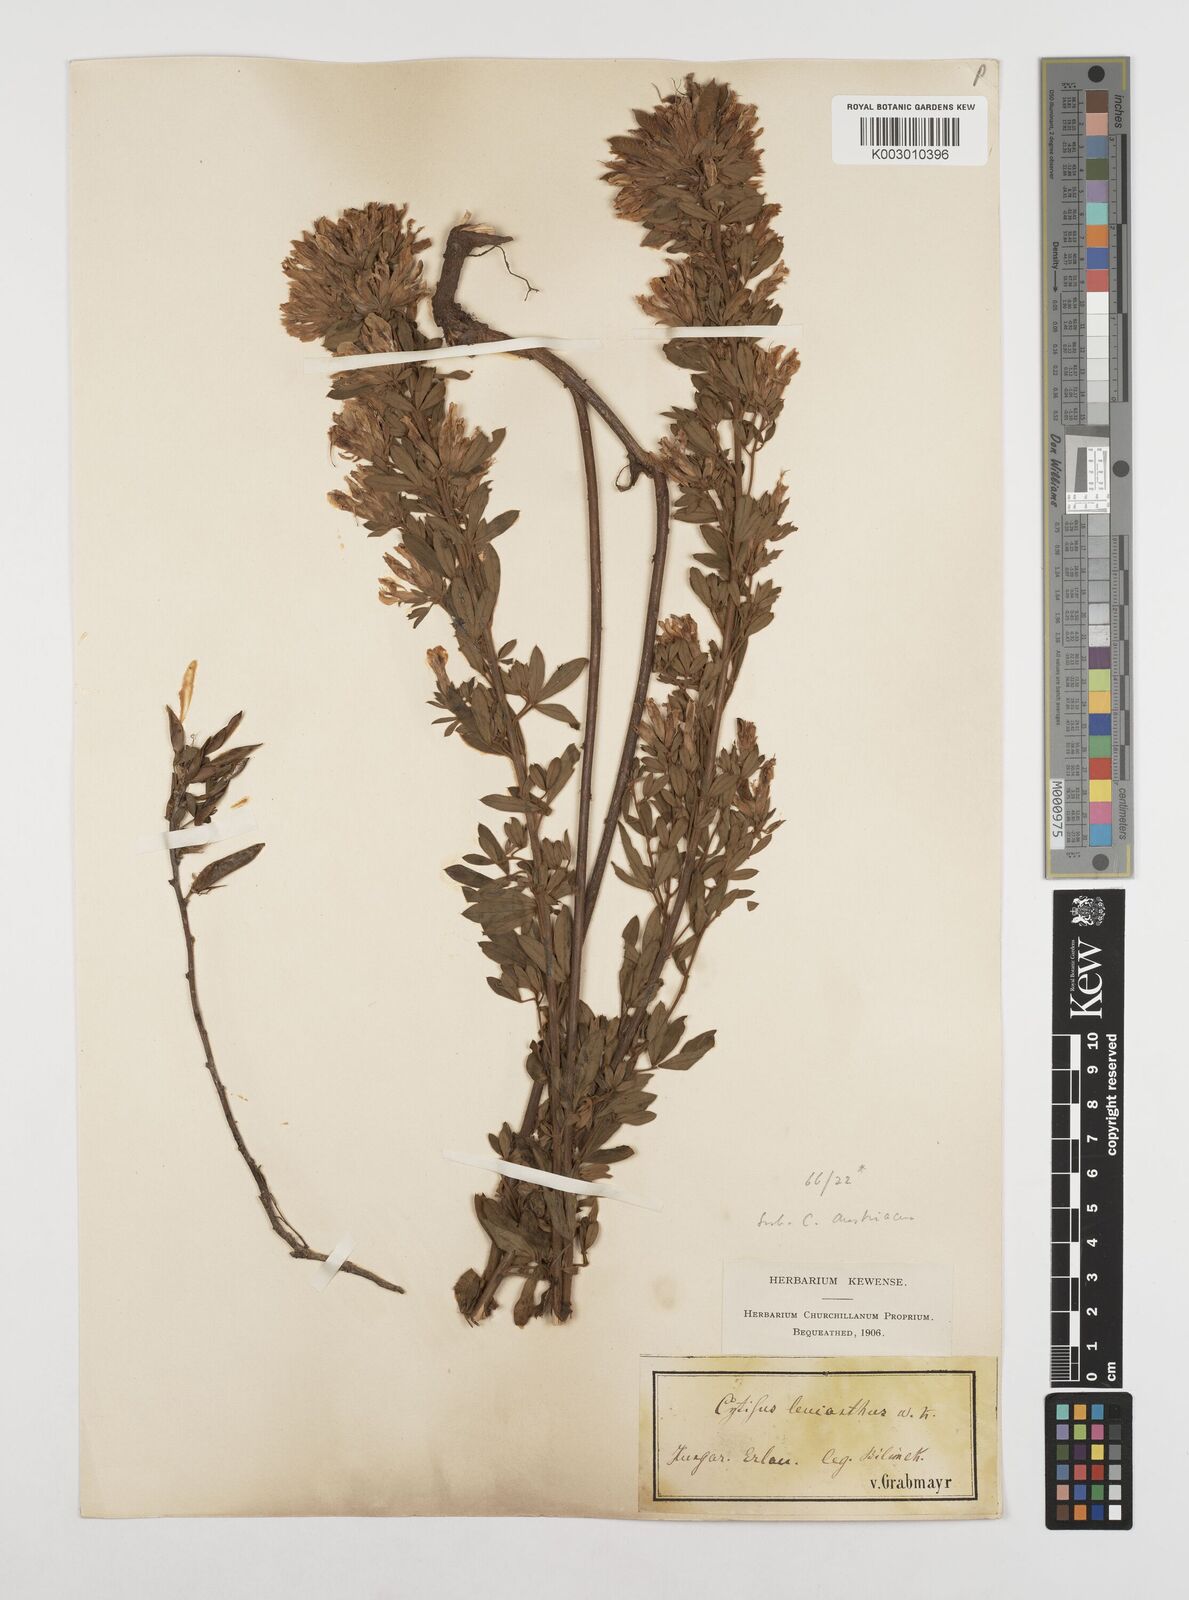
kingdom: Plantae
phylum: Tracheophyta
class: Magnoliopsida
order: Fabales
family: Fabaceae
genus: Chamaecytisus
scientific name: Chamaecytisus rochelii
